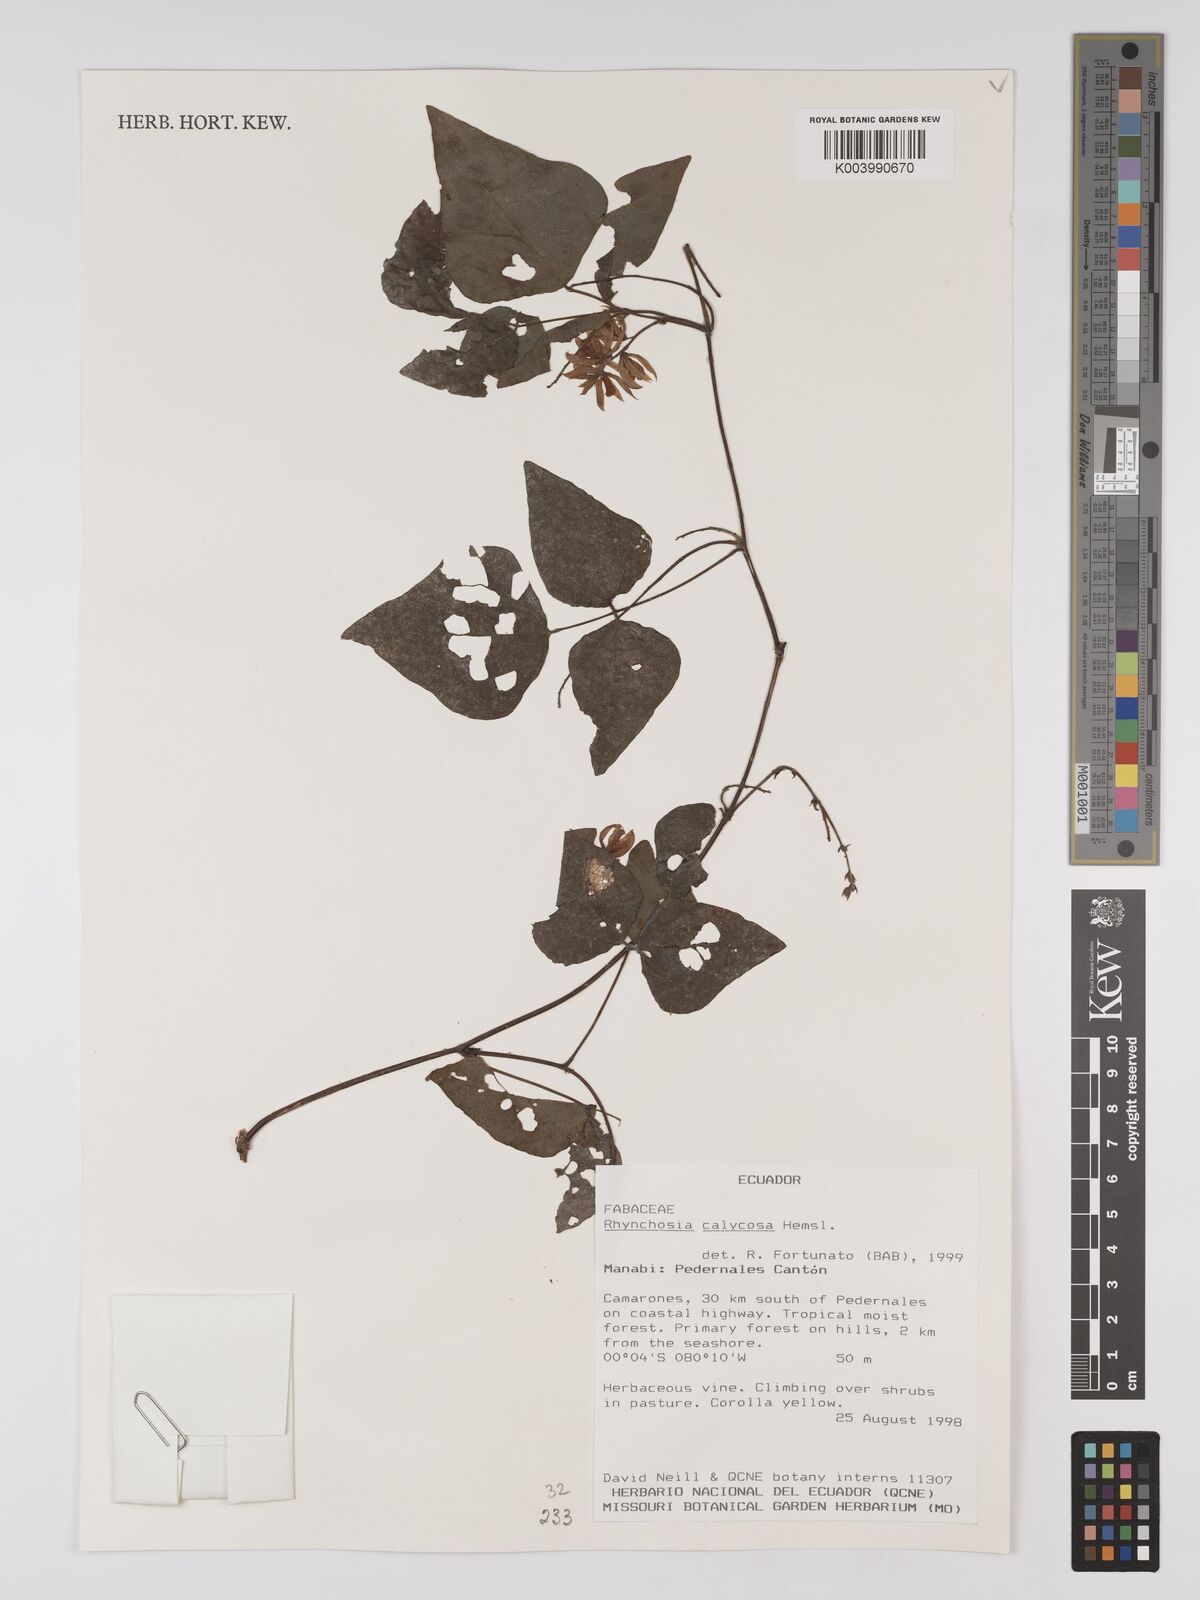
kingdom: Plantae
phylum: Tracheophyta
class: Magnoliopsida
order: Fabales
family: Fabaceae
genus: Rhynchosia
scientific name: Rhynchosia calycosa
